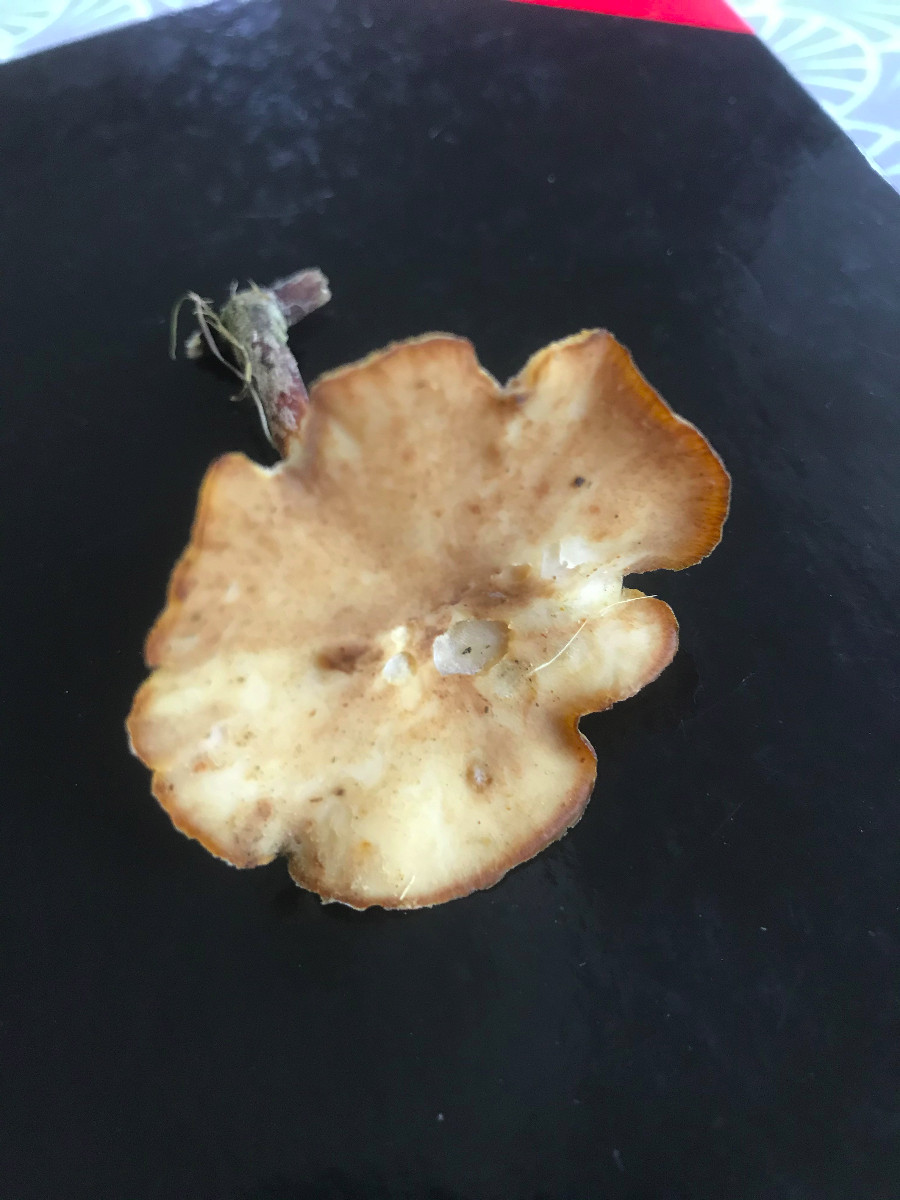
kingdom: Fungi
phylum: Basidiomycota
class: Agaricomycetes
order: Polyporales
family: Polyporaceae
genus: Lentinus
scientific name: Lentinus brumalis
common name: vinter-stilkporesvamp
